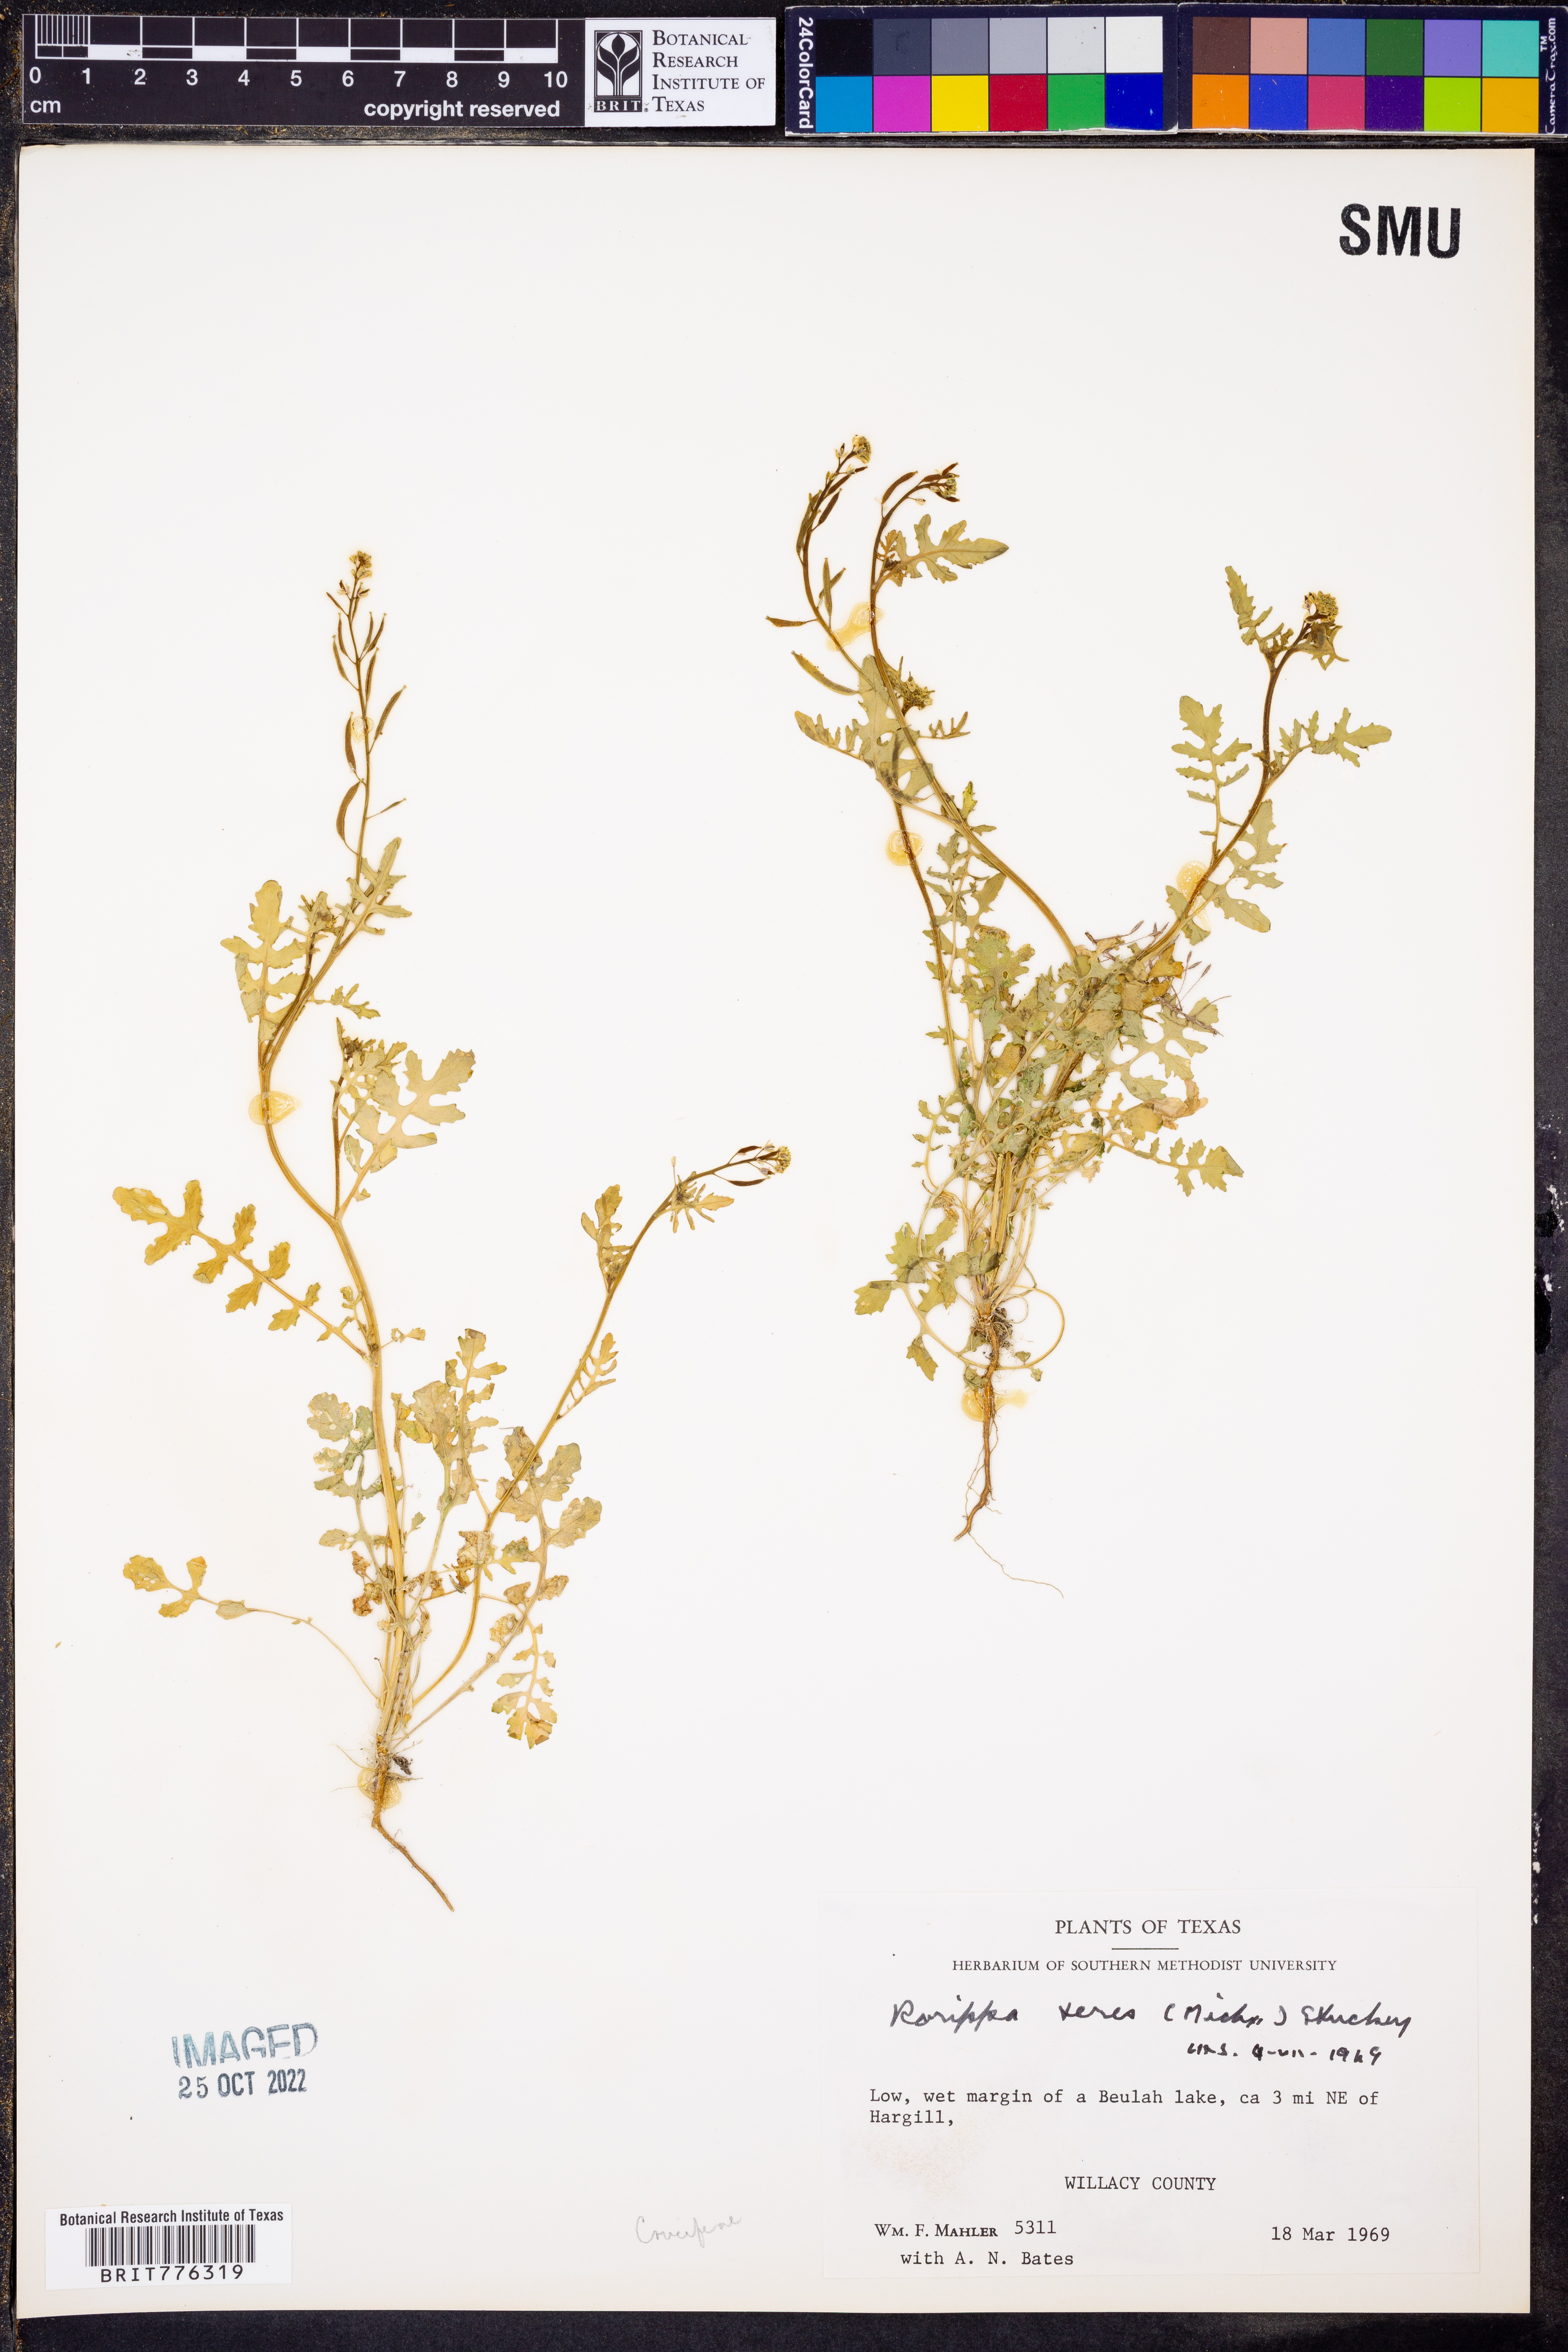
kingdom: Plantae
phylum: Tracheophyta
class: Magnoliopsida
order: Brassicales
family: Brassicaceae
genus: Rorippa
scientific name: Rorippa teres
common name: Southern marsh yellowcress
